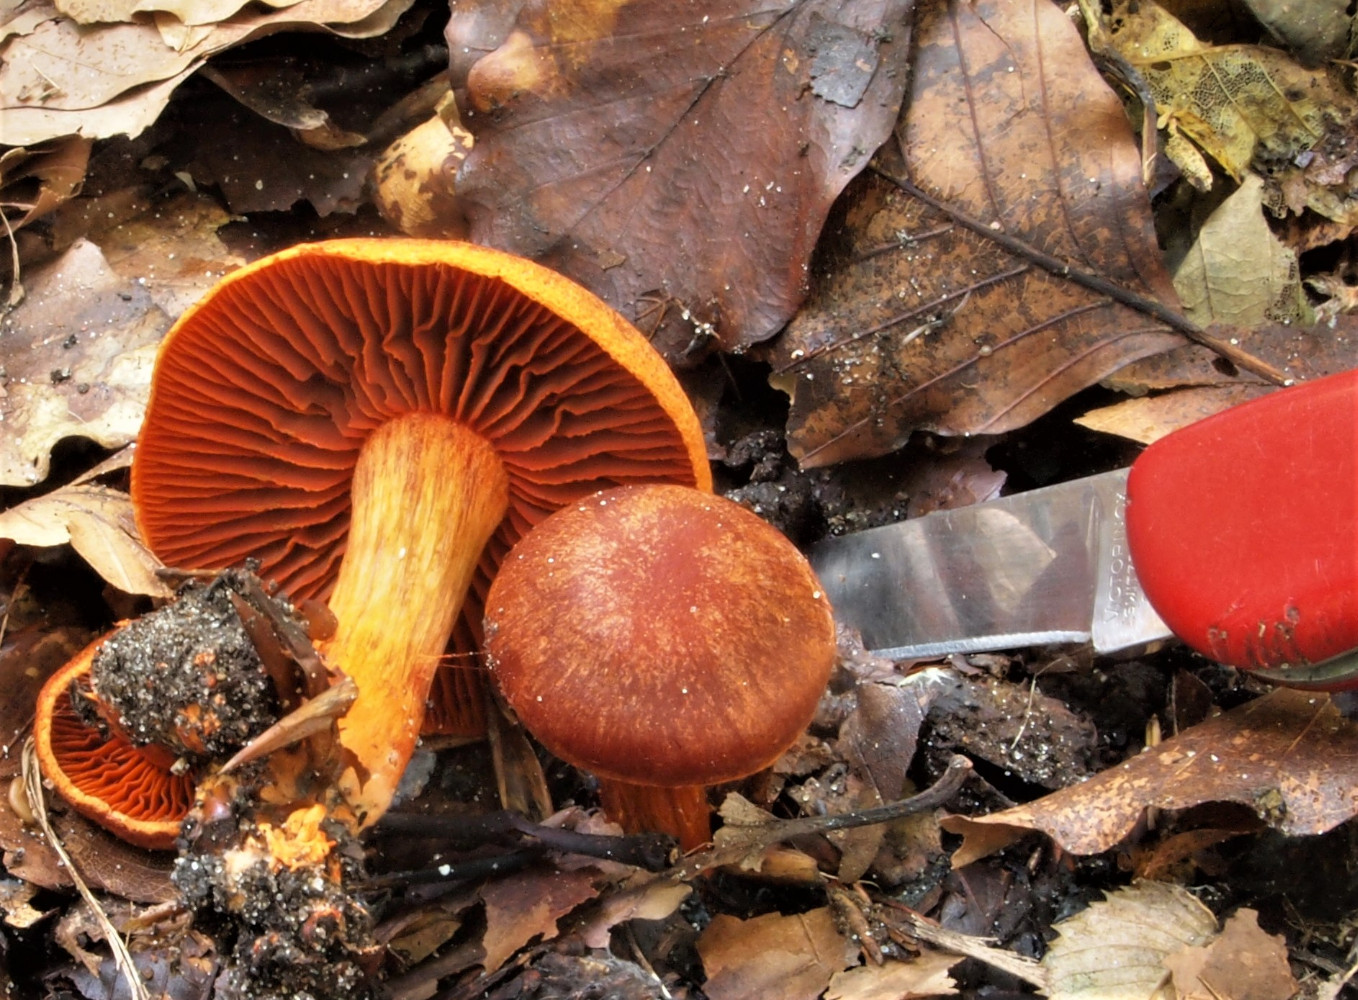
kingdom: Fungi
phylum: Basidiomycota
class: Agaricomycetes
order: Agaricales
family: Cortinariaceae
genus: Cortinarius
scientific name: Cortinarius cinnabarinus
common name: cinnober-slørhat
